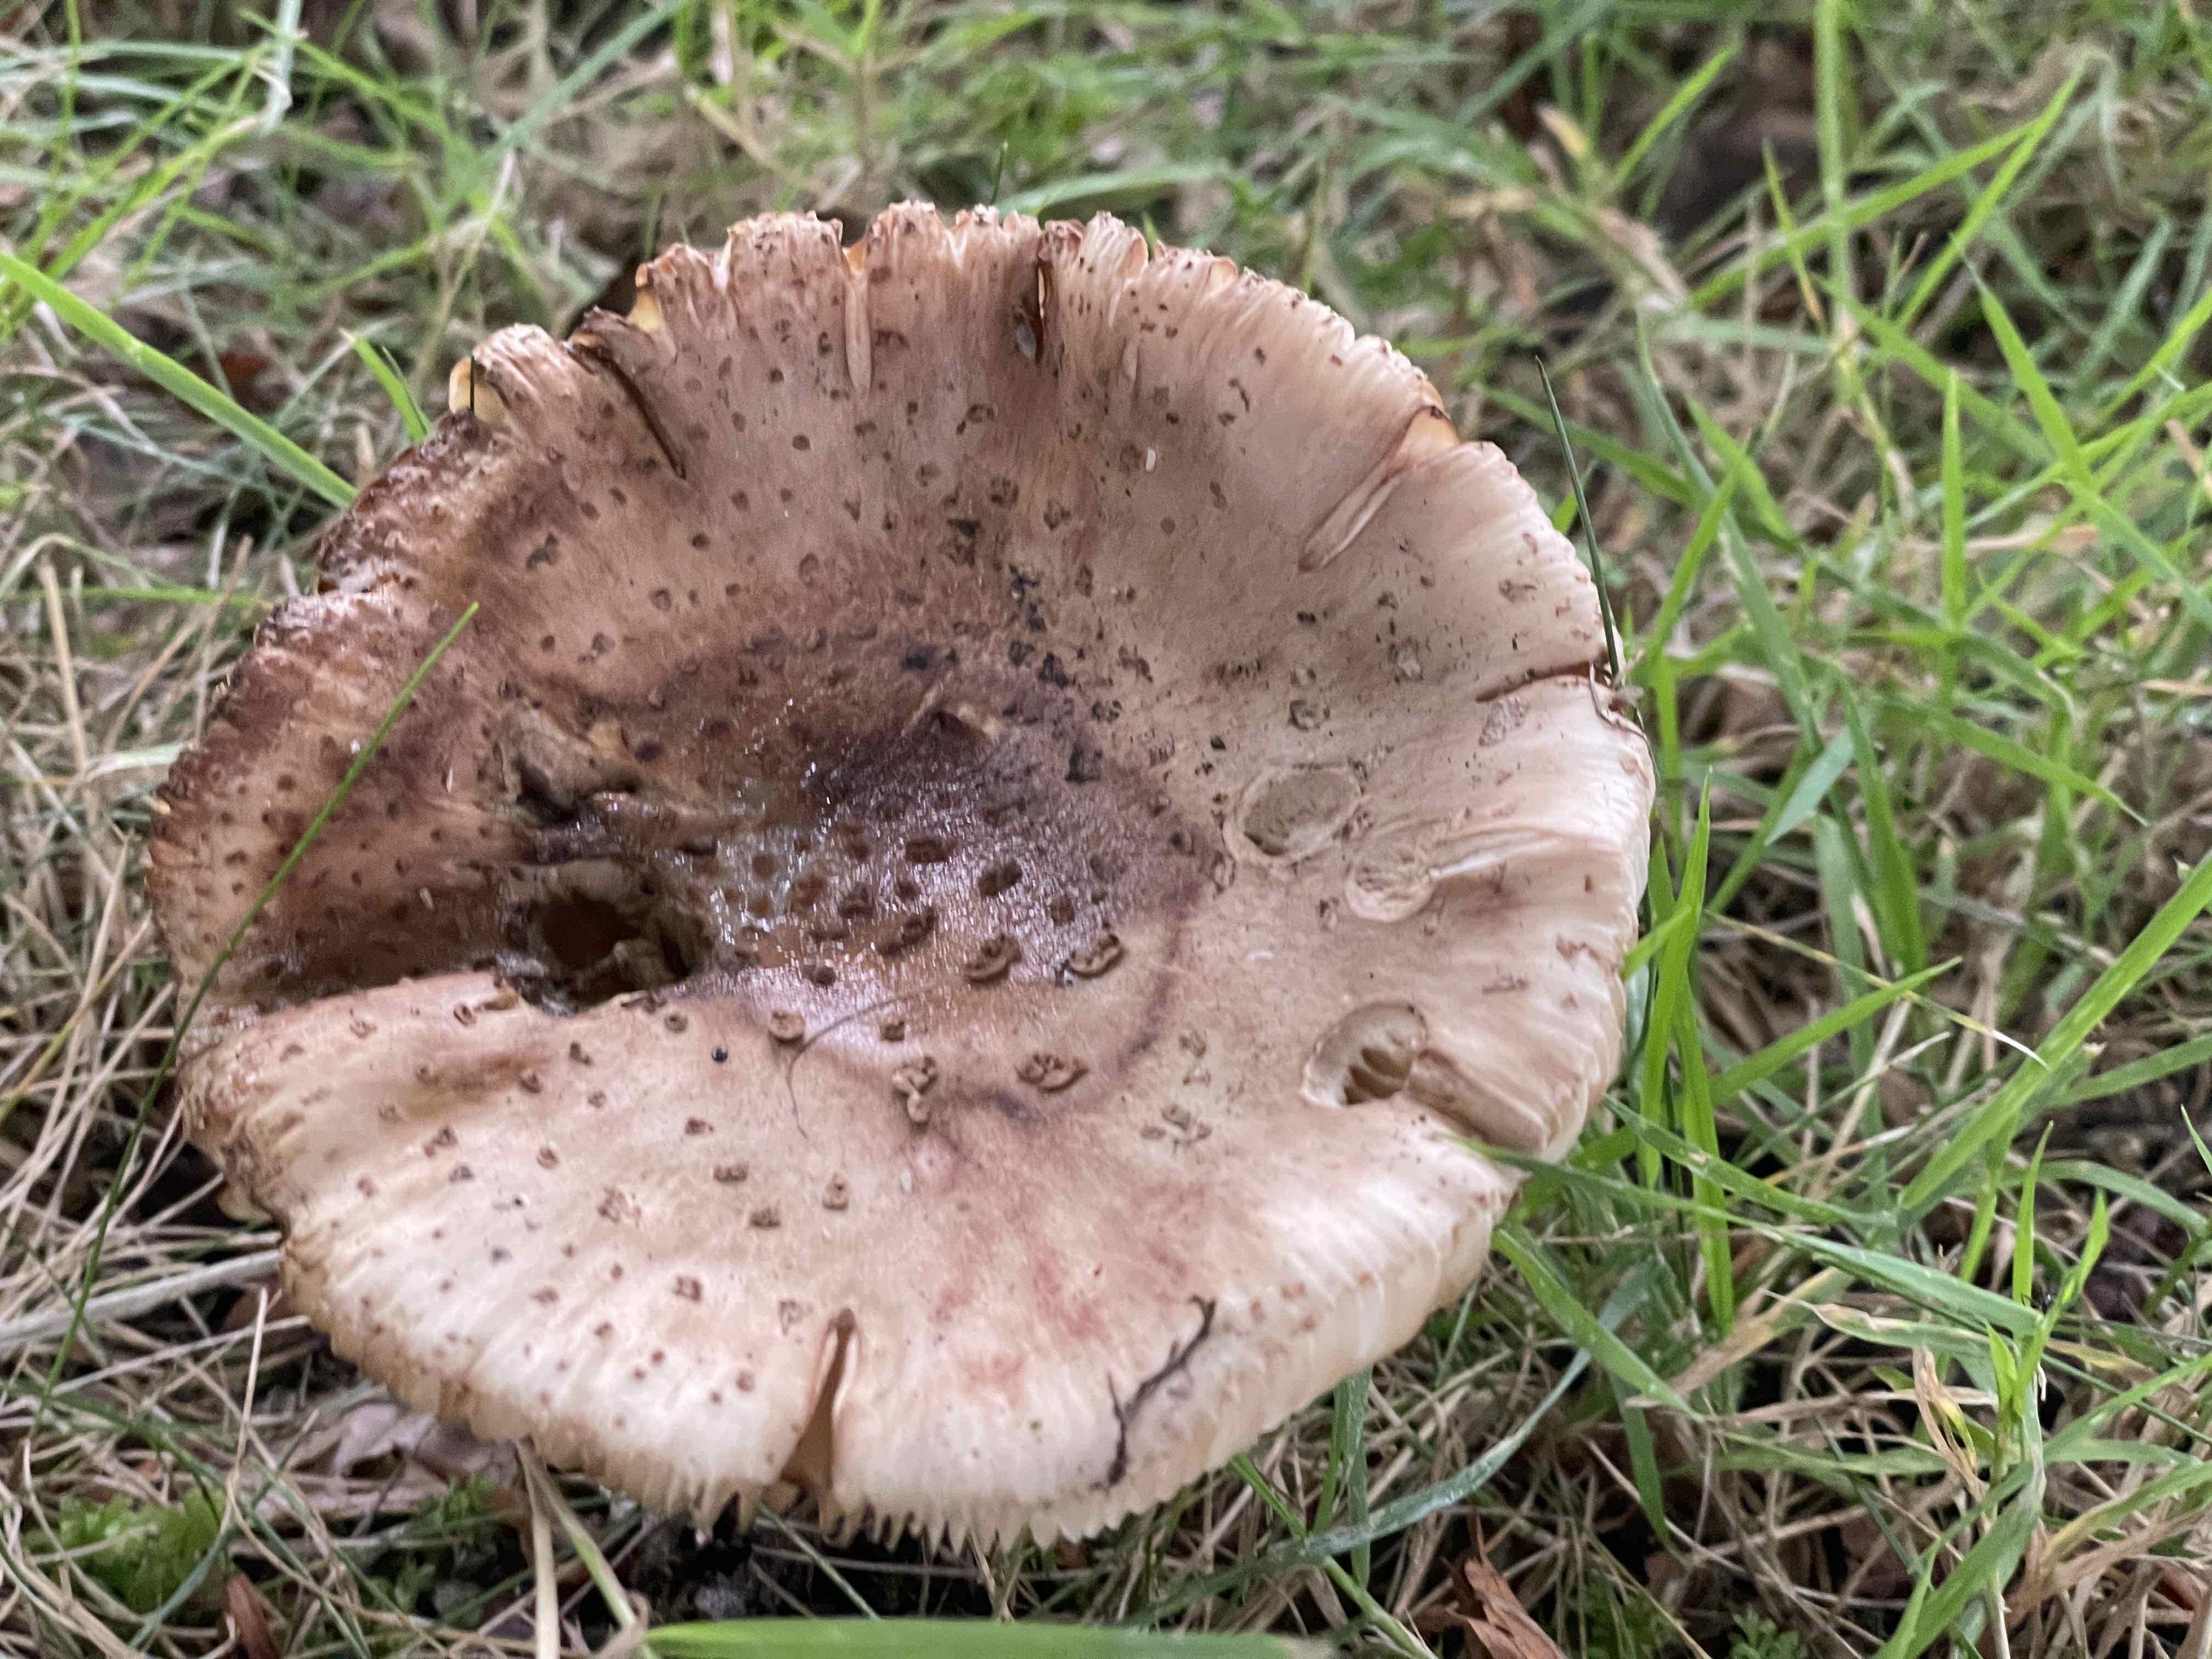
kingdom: Fungi
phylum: Basidiomycota
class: Agaricomycetes
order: Agaricales
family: Amanitaceae
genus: Amanita
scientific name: Amanita rubescens
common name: rødmende fluesvamp
